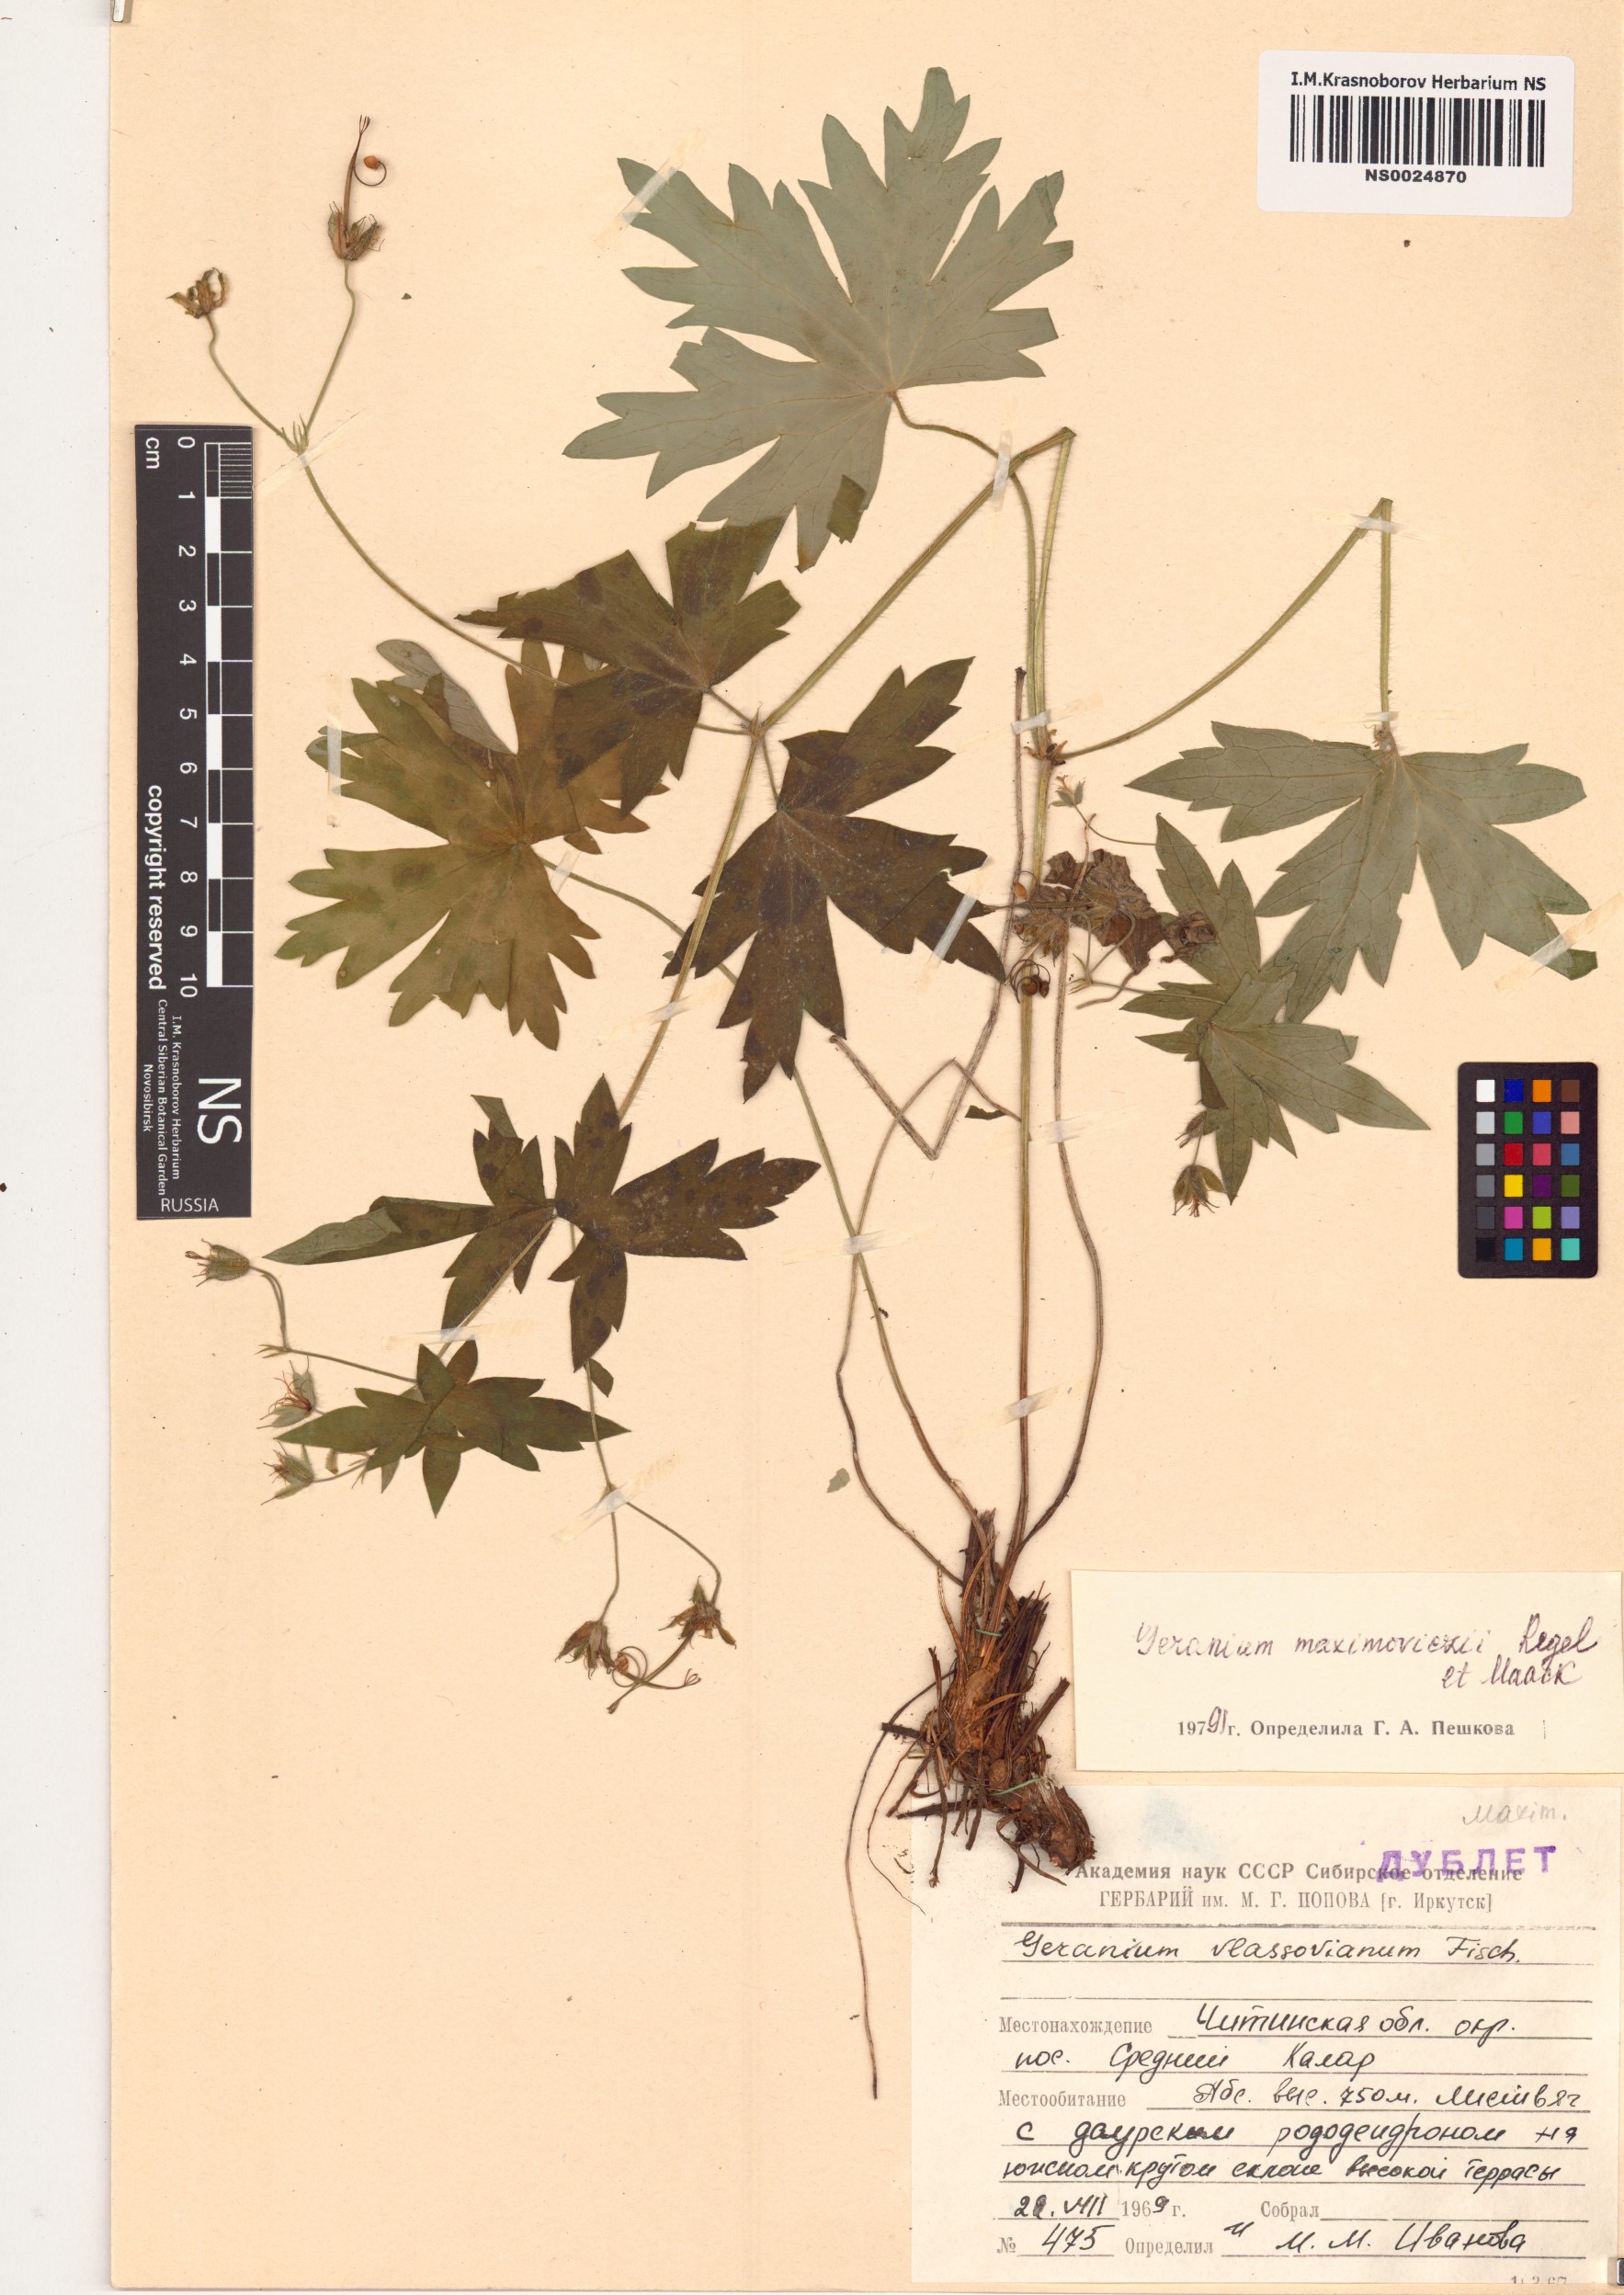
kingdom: Plantae
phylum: Tracheophyta
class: Magnoliopsida
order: Geraniales
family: Geraniaceae
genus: Geranium
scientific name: Geranium maximowiczii
